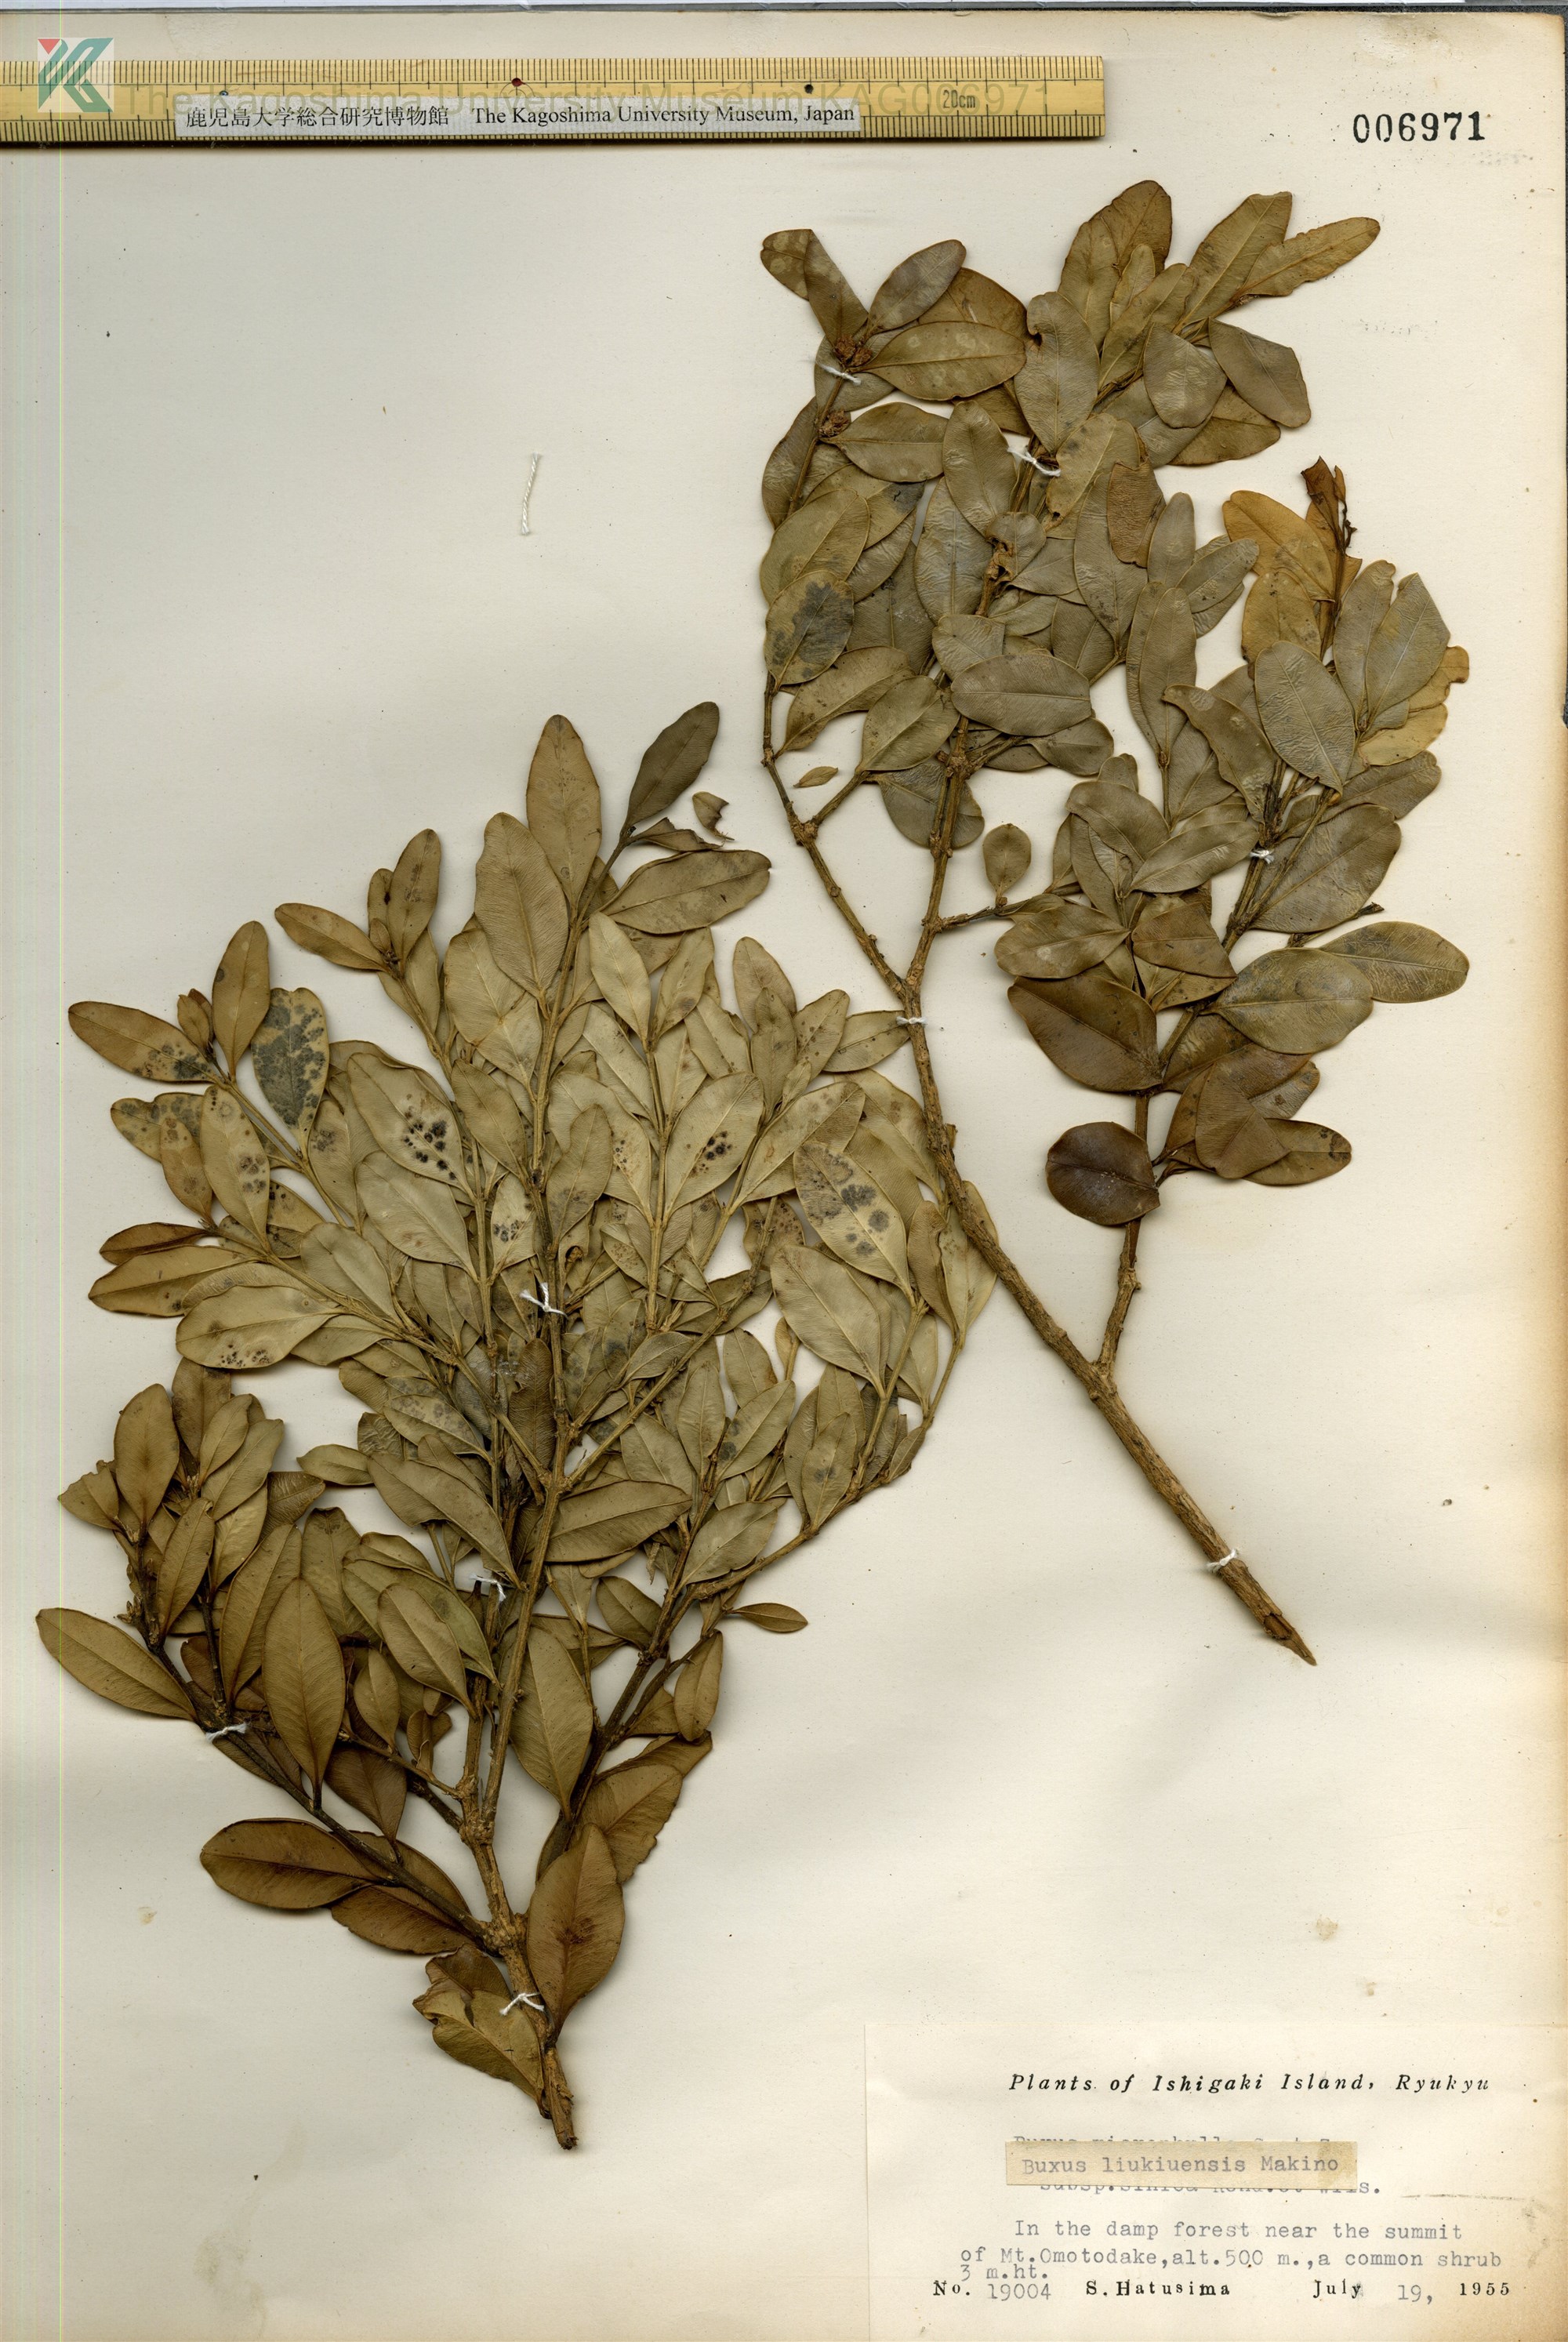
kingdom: Plantae
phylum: Tracheophyta
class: Magnoliopsida
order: Buxales
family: Buxaceae
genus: Buxus
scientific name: Buxus liukiuensis
